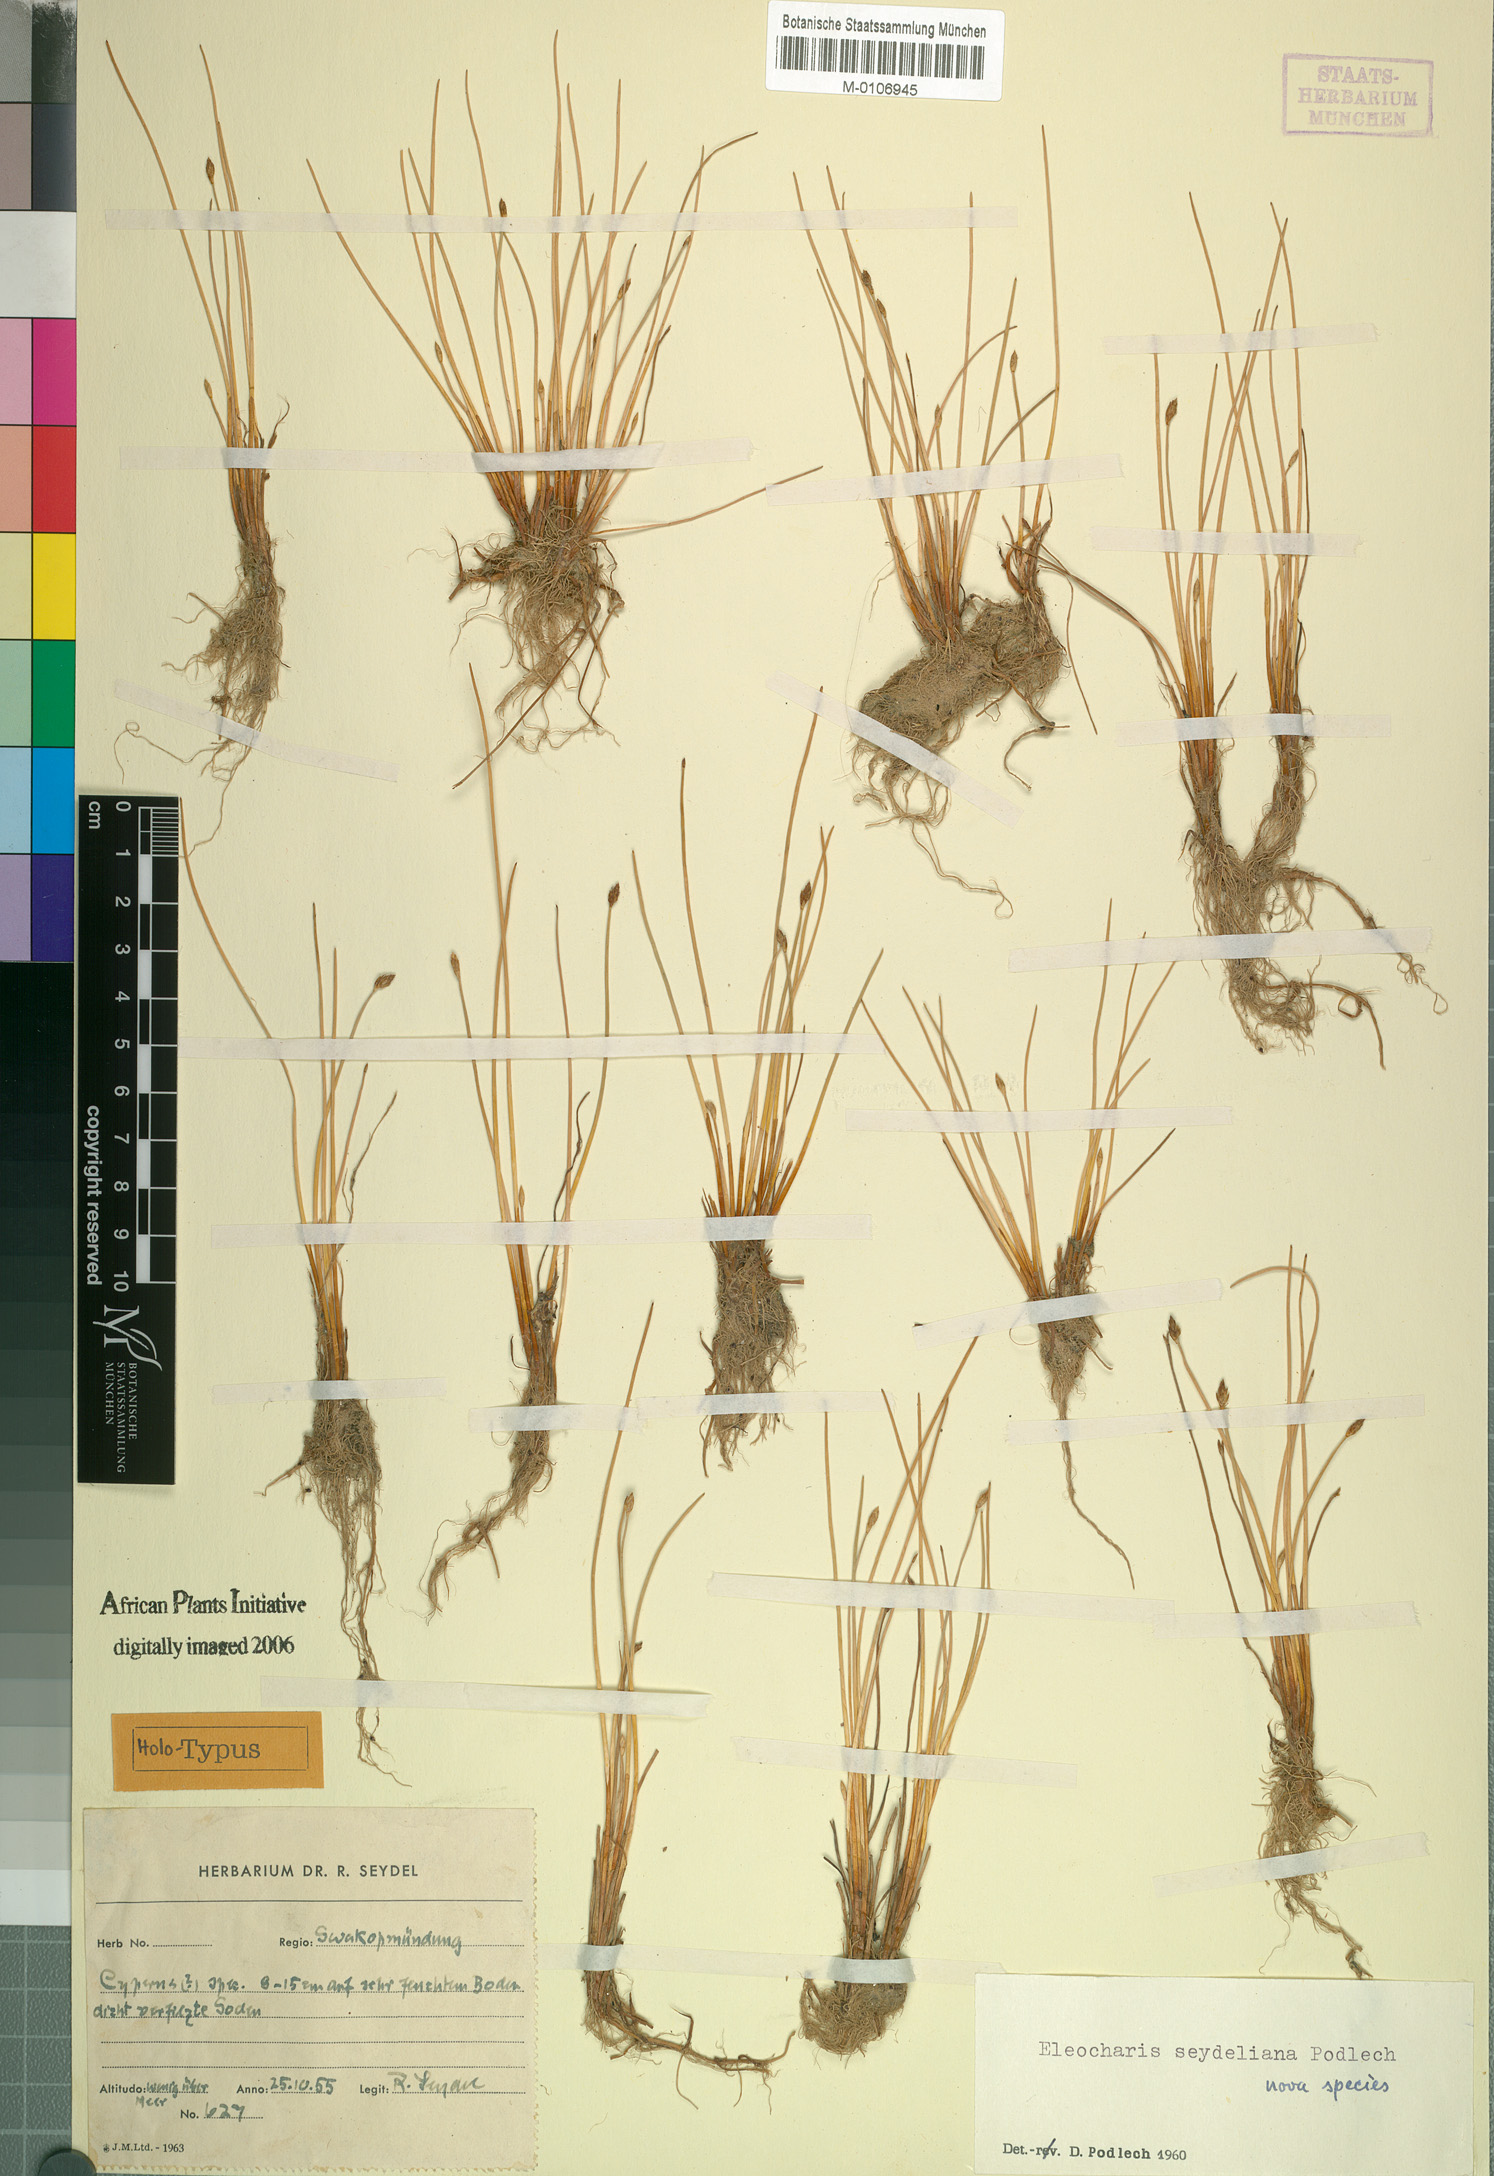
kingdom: Plantae
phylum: Tracheophyta
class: Liliopsida
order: Poales
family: Cyperaceae
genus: Eleocharis
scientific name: Eleocharis schlechteri
